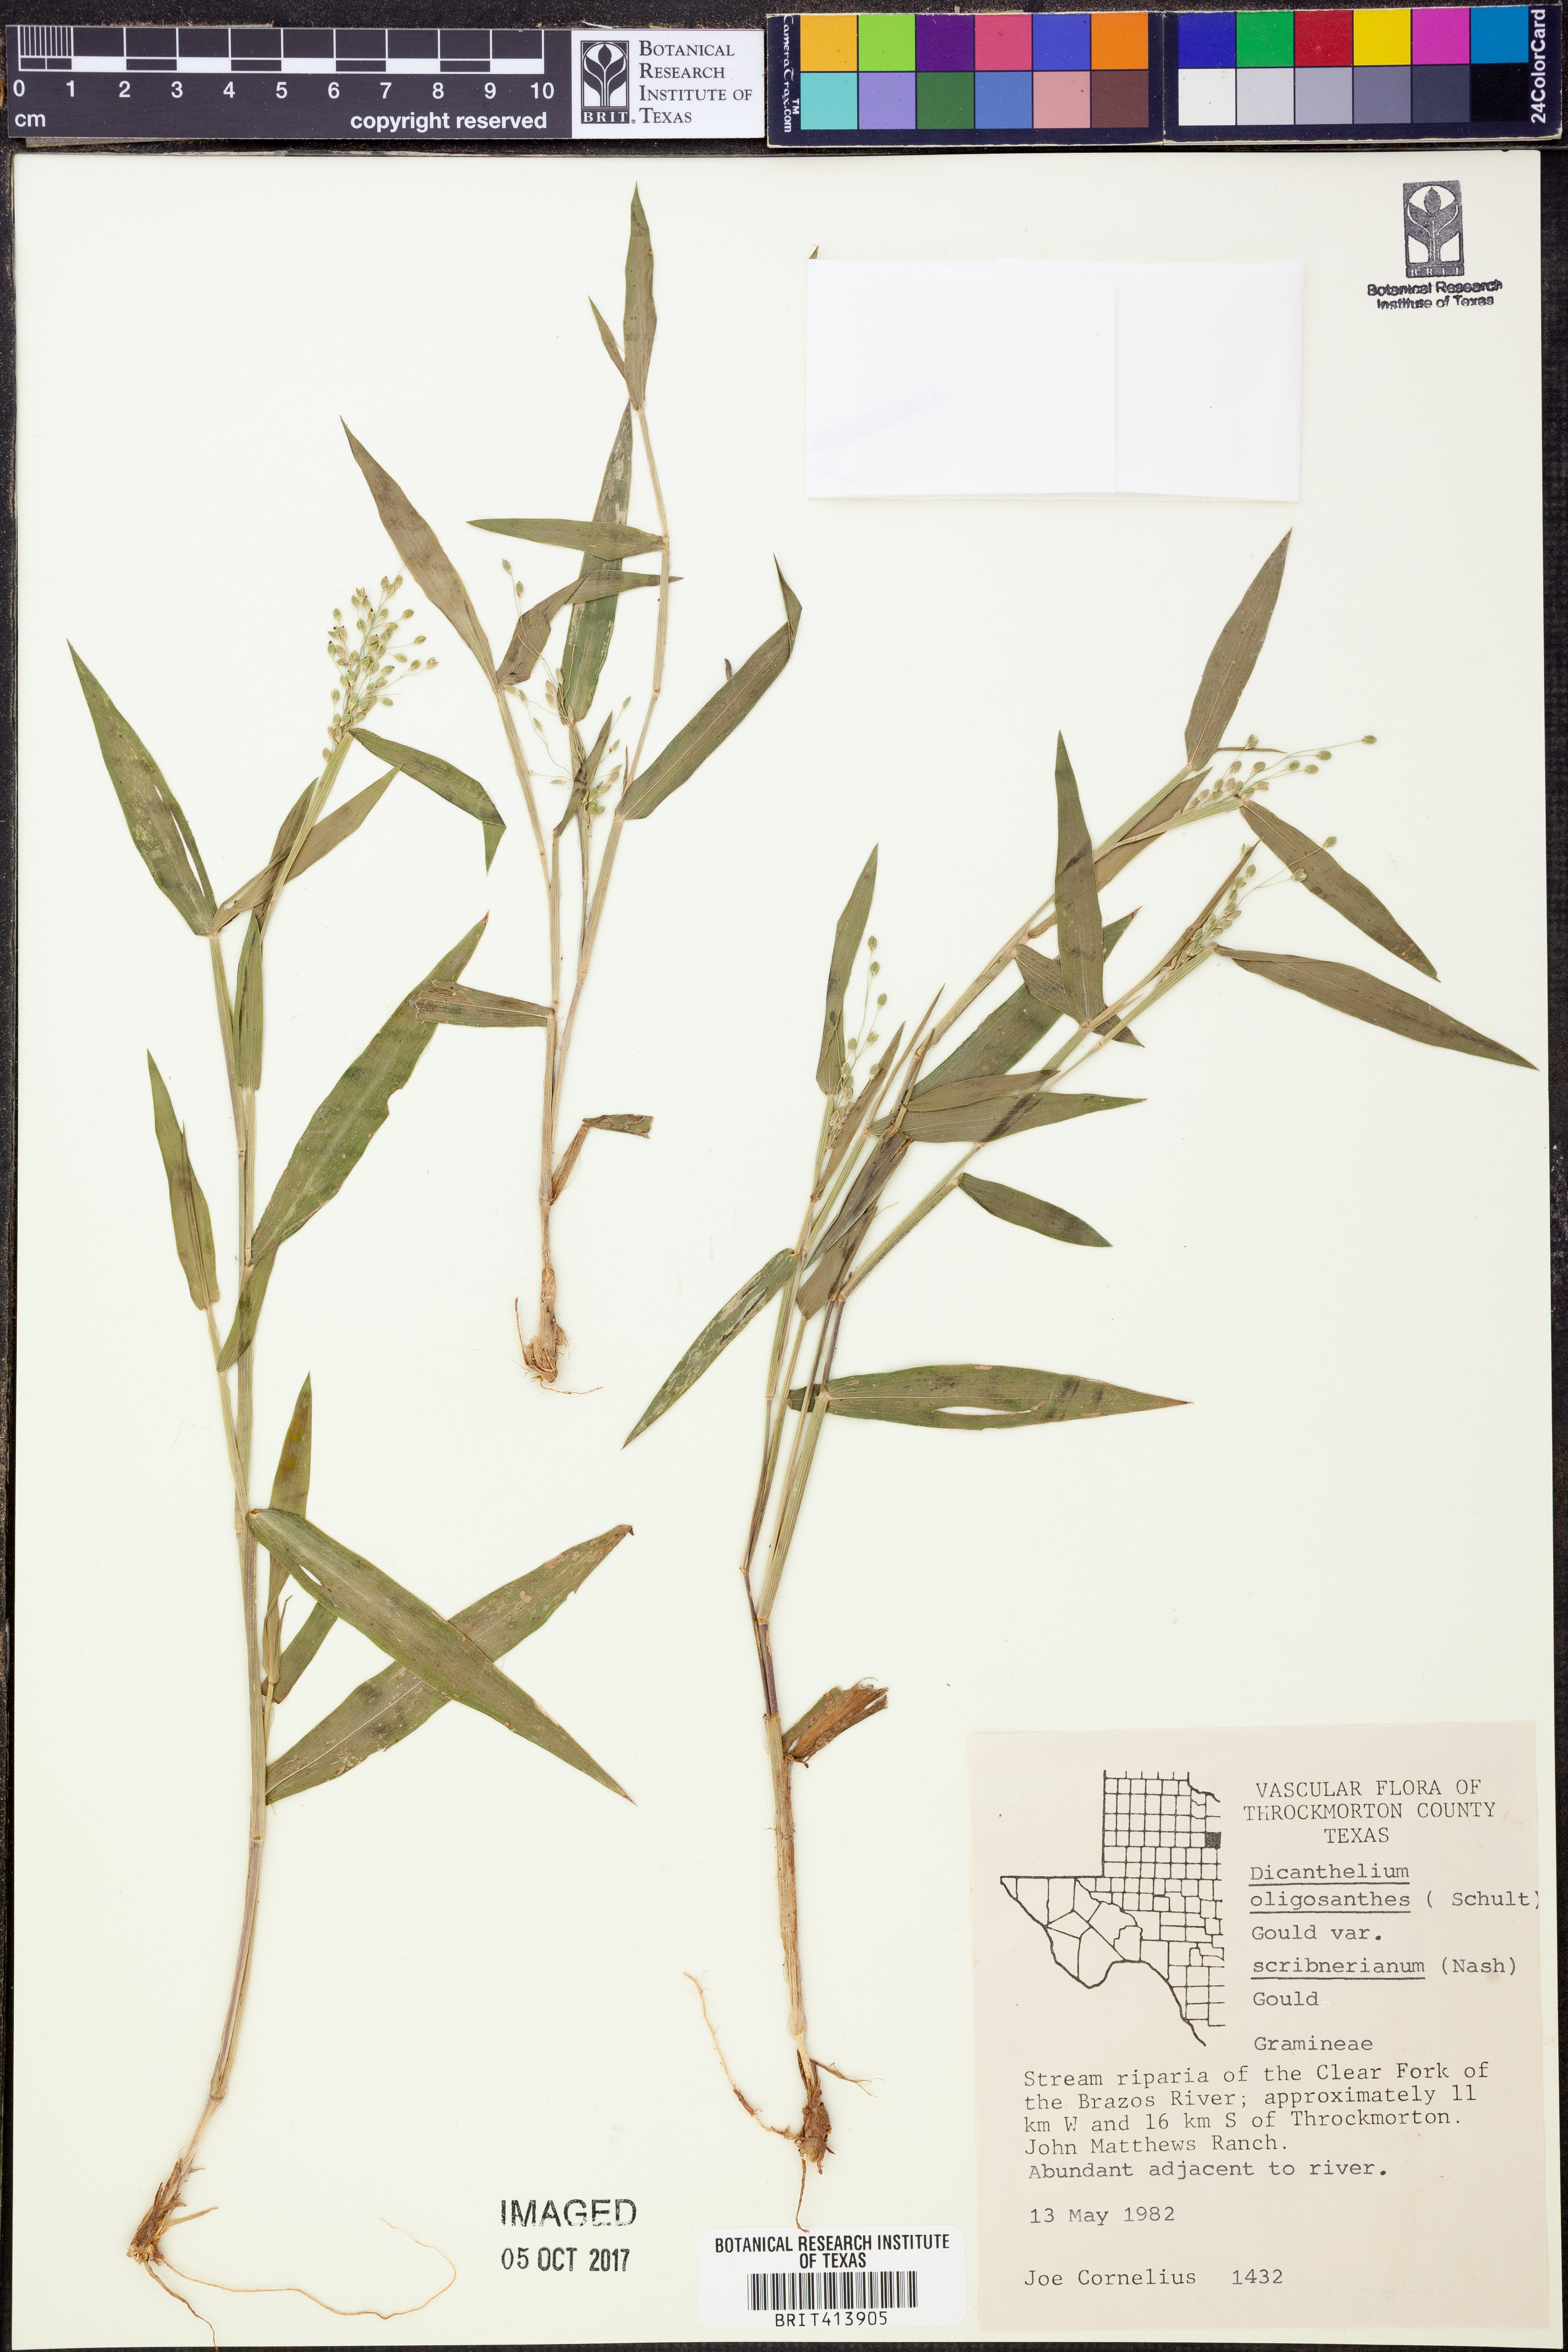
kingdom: Plantae
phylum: Tracheophyta
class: Liliopsida
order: Poales
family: Poaceae
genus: Dichanthelium
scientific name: Dichanthelium scribnerianum
